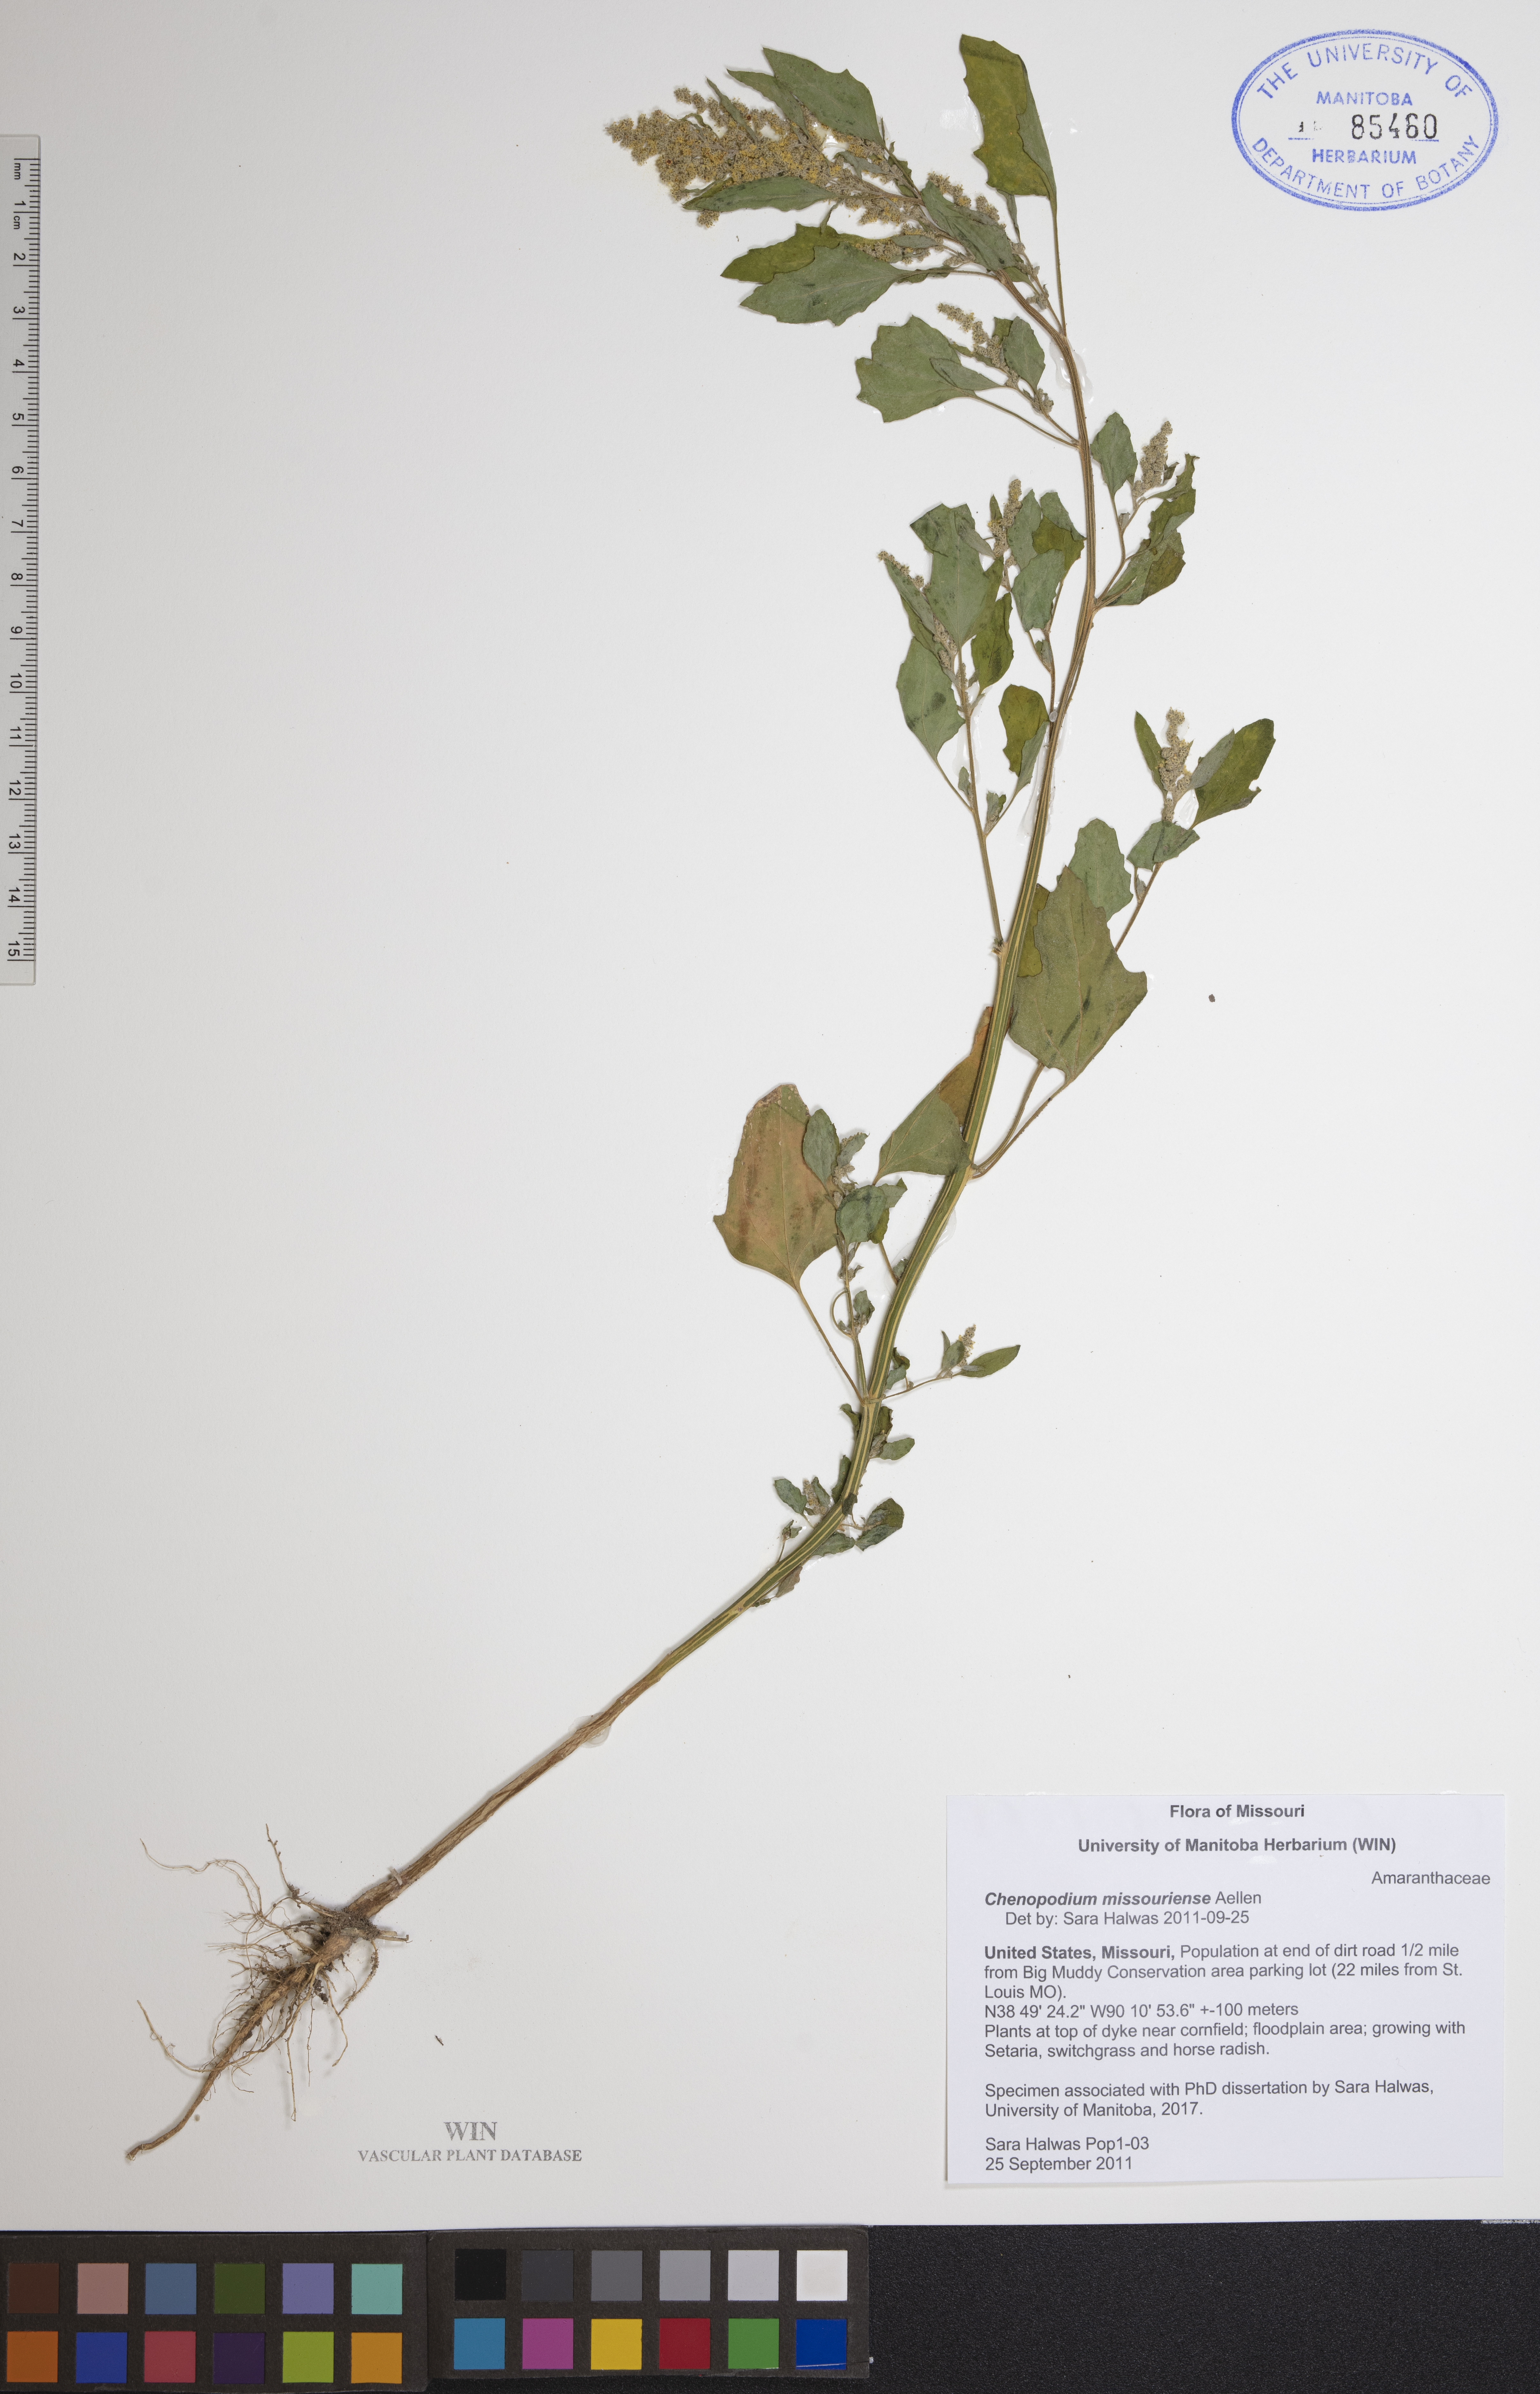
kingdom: Plantae
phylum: Tracheophyta
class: Magnoliopsida
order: Caryophyllales
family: Amaranthaceae
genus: Chenopodium
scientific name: Chenopodium album
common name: Fat-hen
